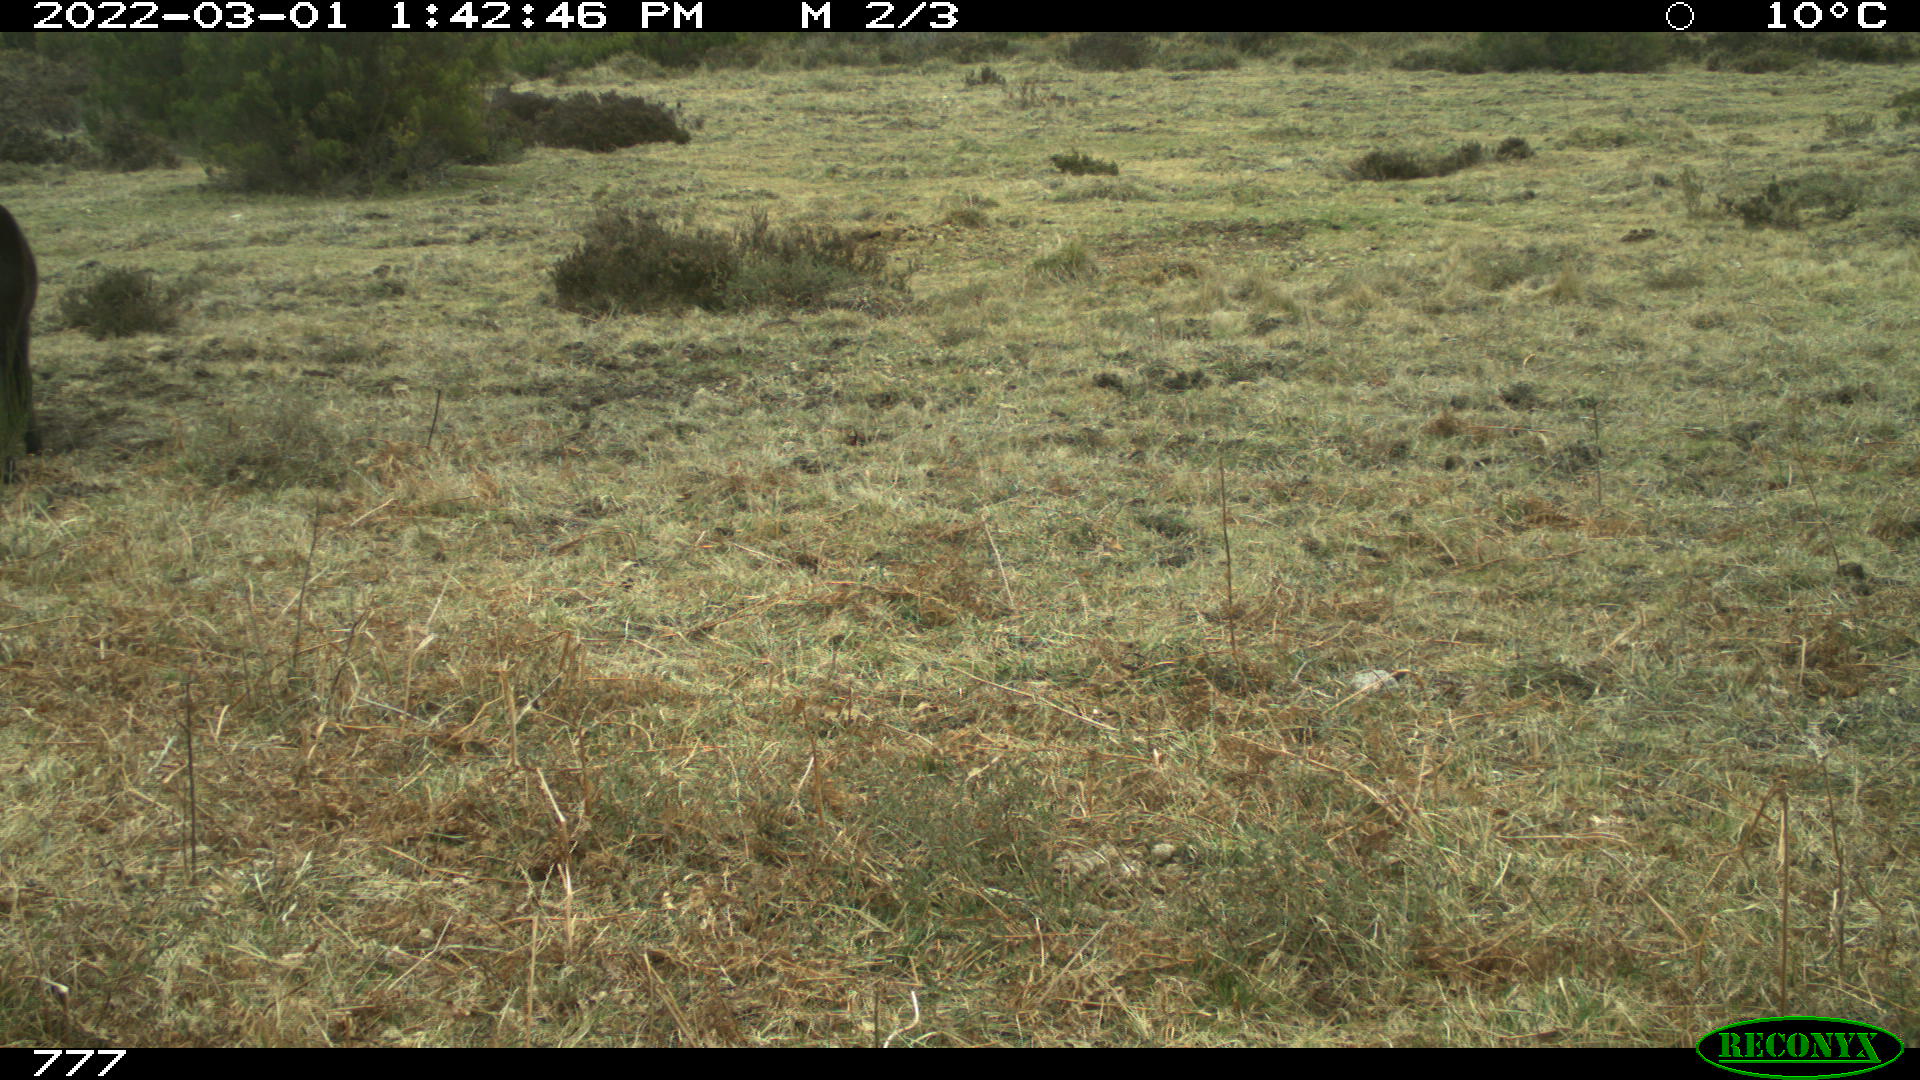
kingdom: Animalia
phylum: Chordata
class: Mammalia
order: Perissodactyla
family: Equidae
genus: Equus
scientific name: Equus caballus
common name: Horse
